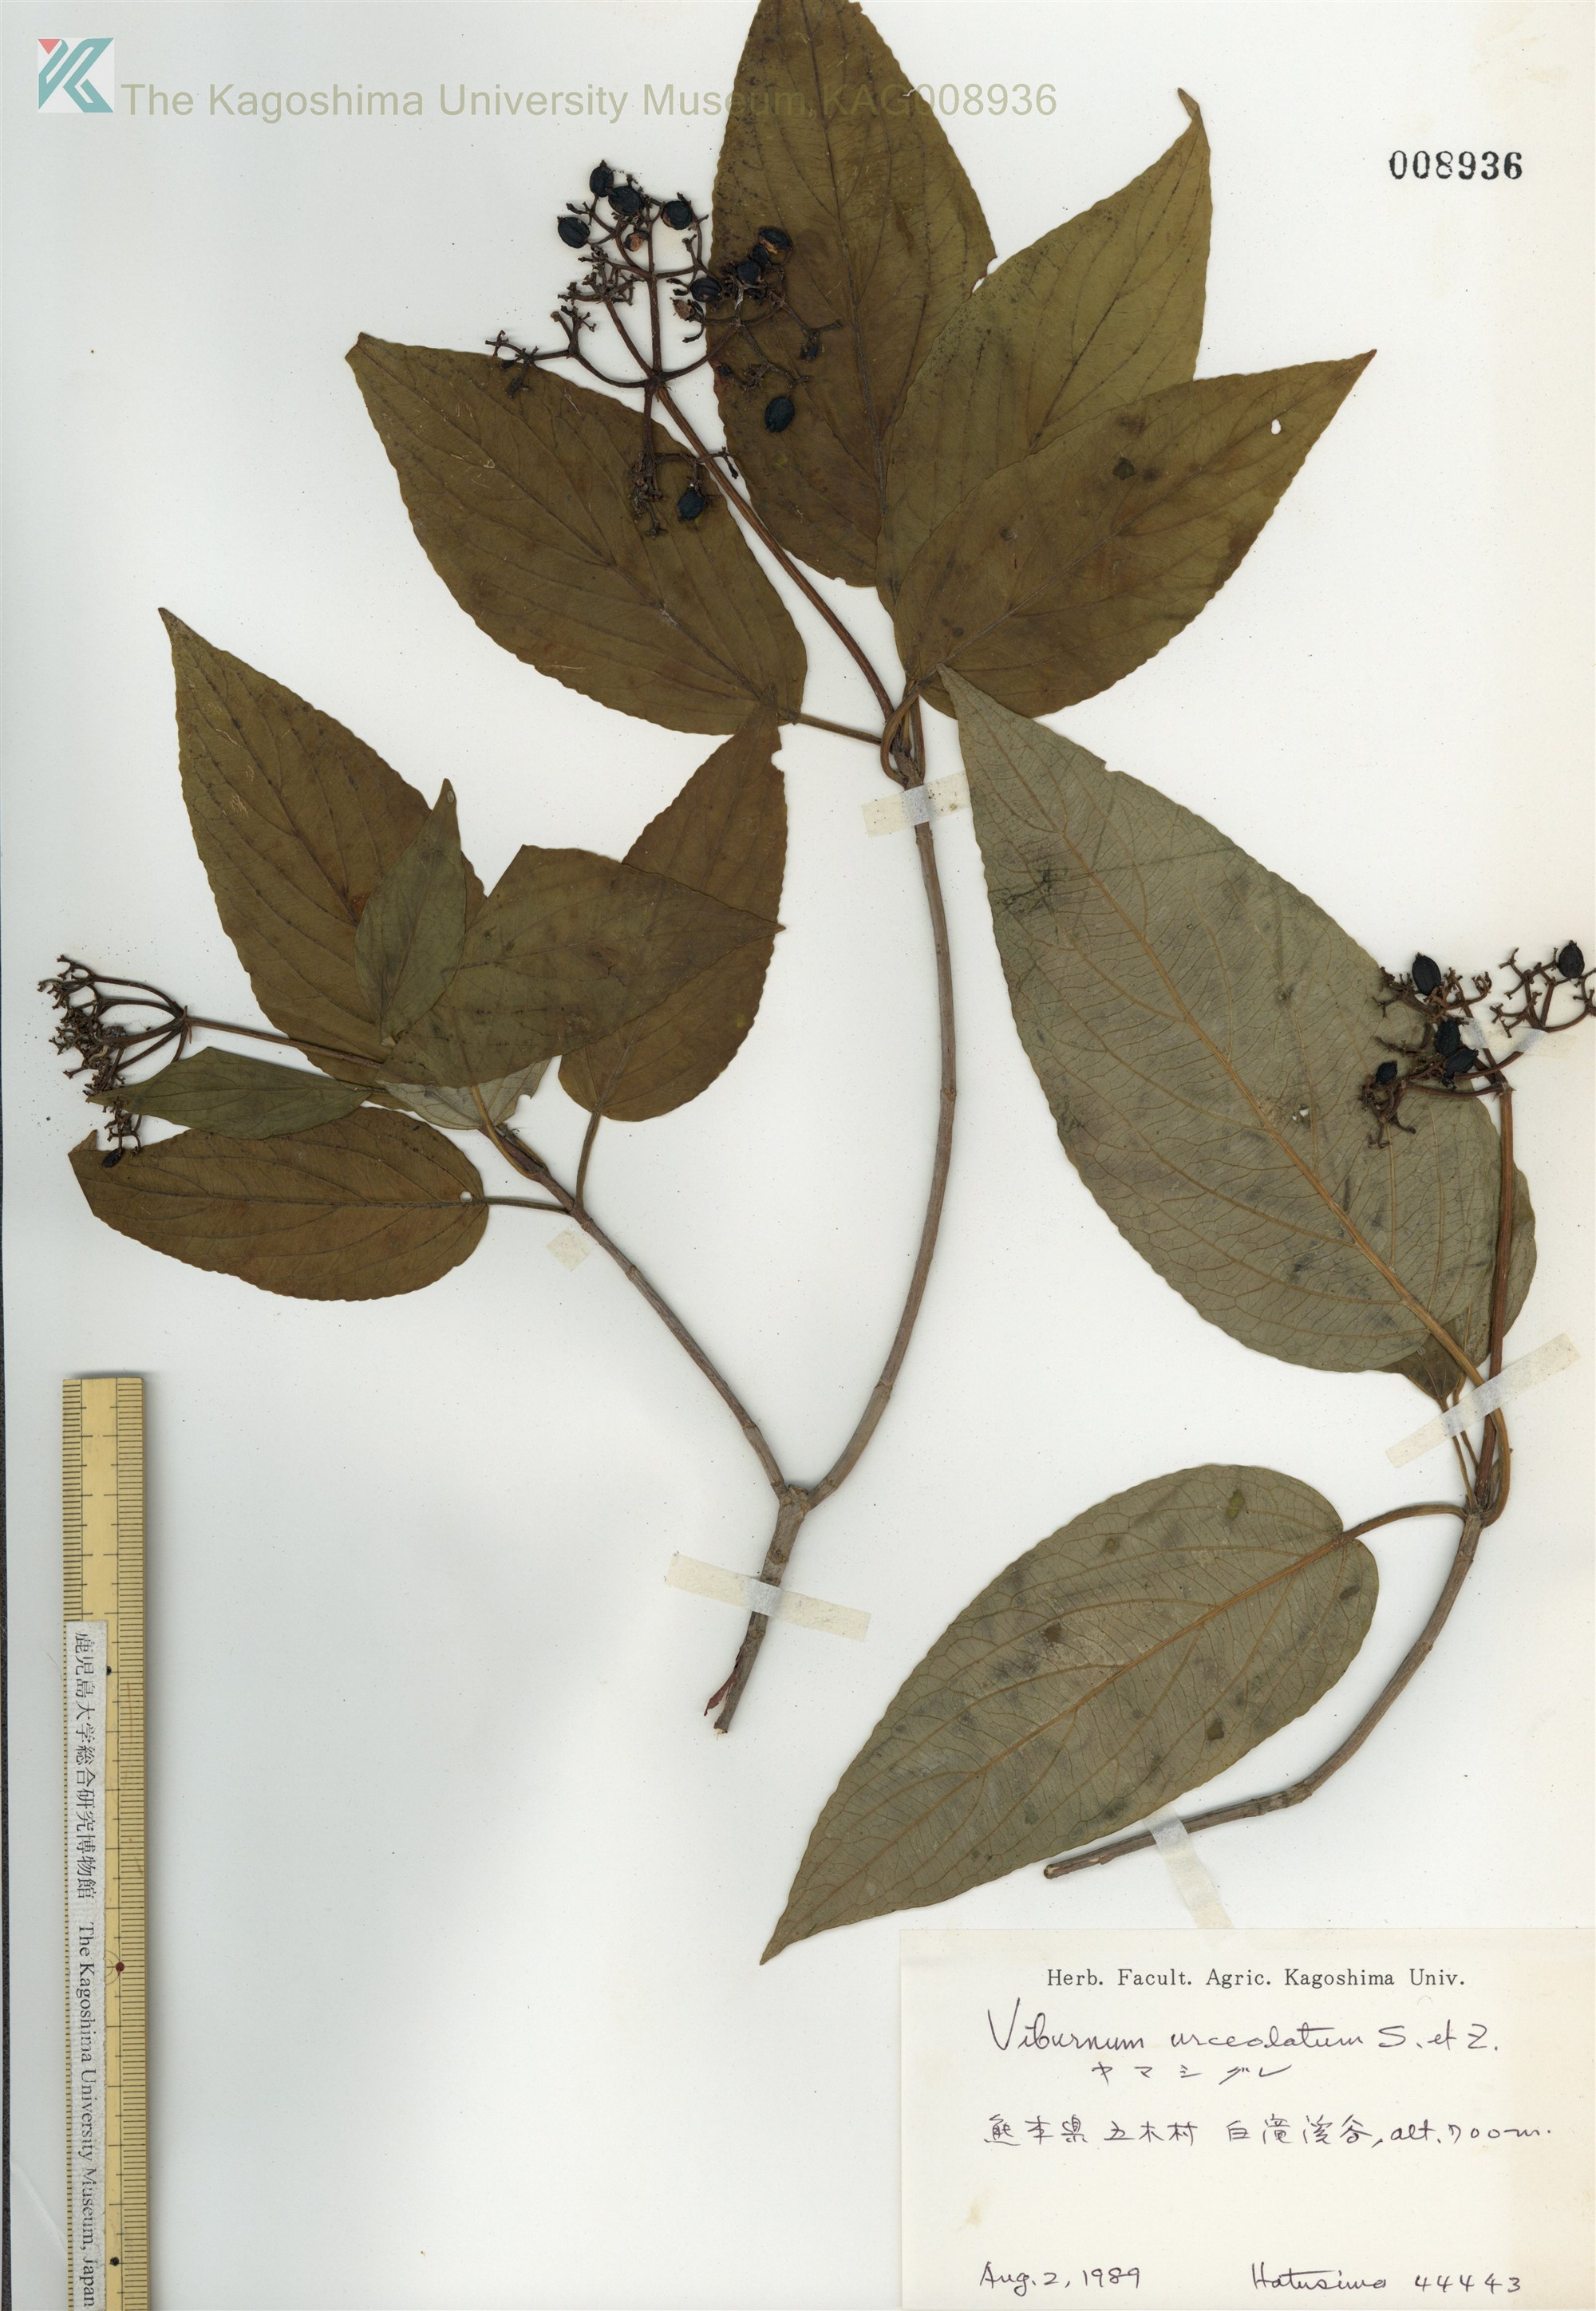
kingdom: Plantae
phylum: Tracheophyta
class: Magnoliopsida
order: Dipsacales
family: Viburnaceae
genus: Viburnum
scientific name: Viburnum urceolatum
